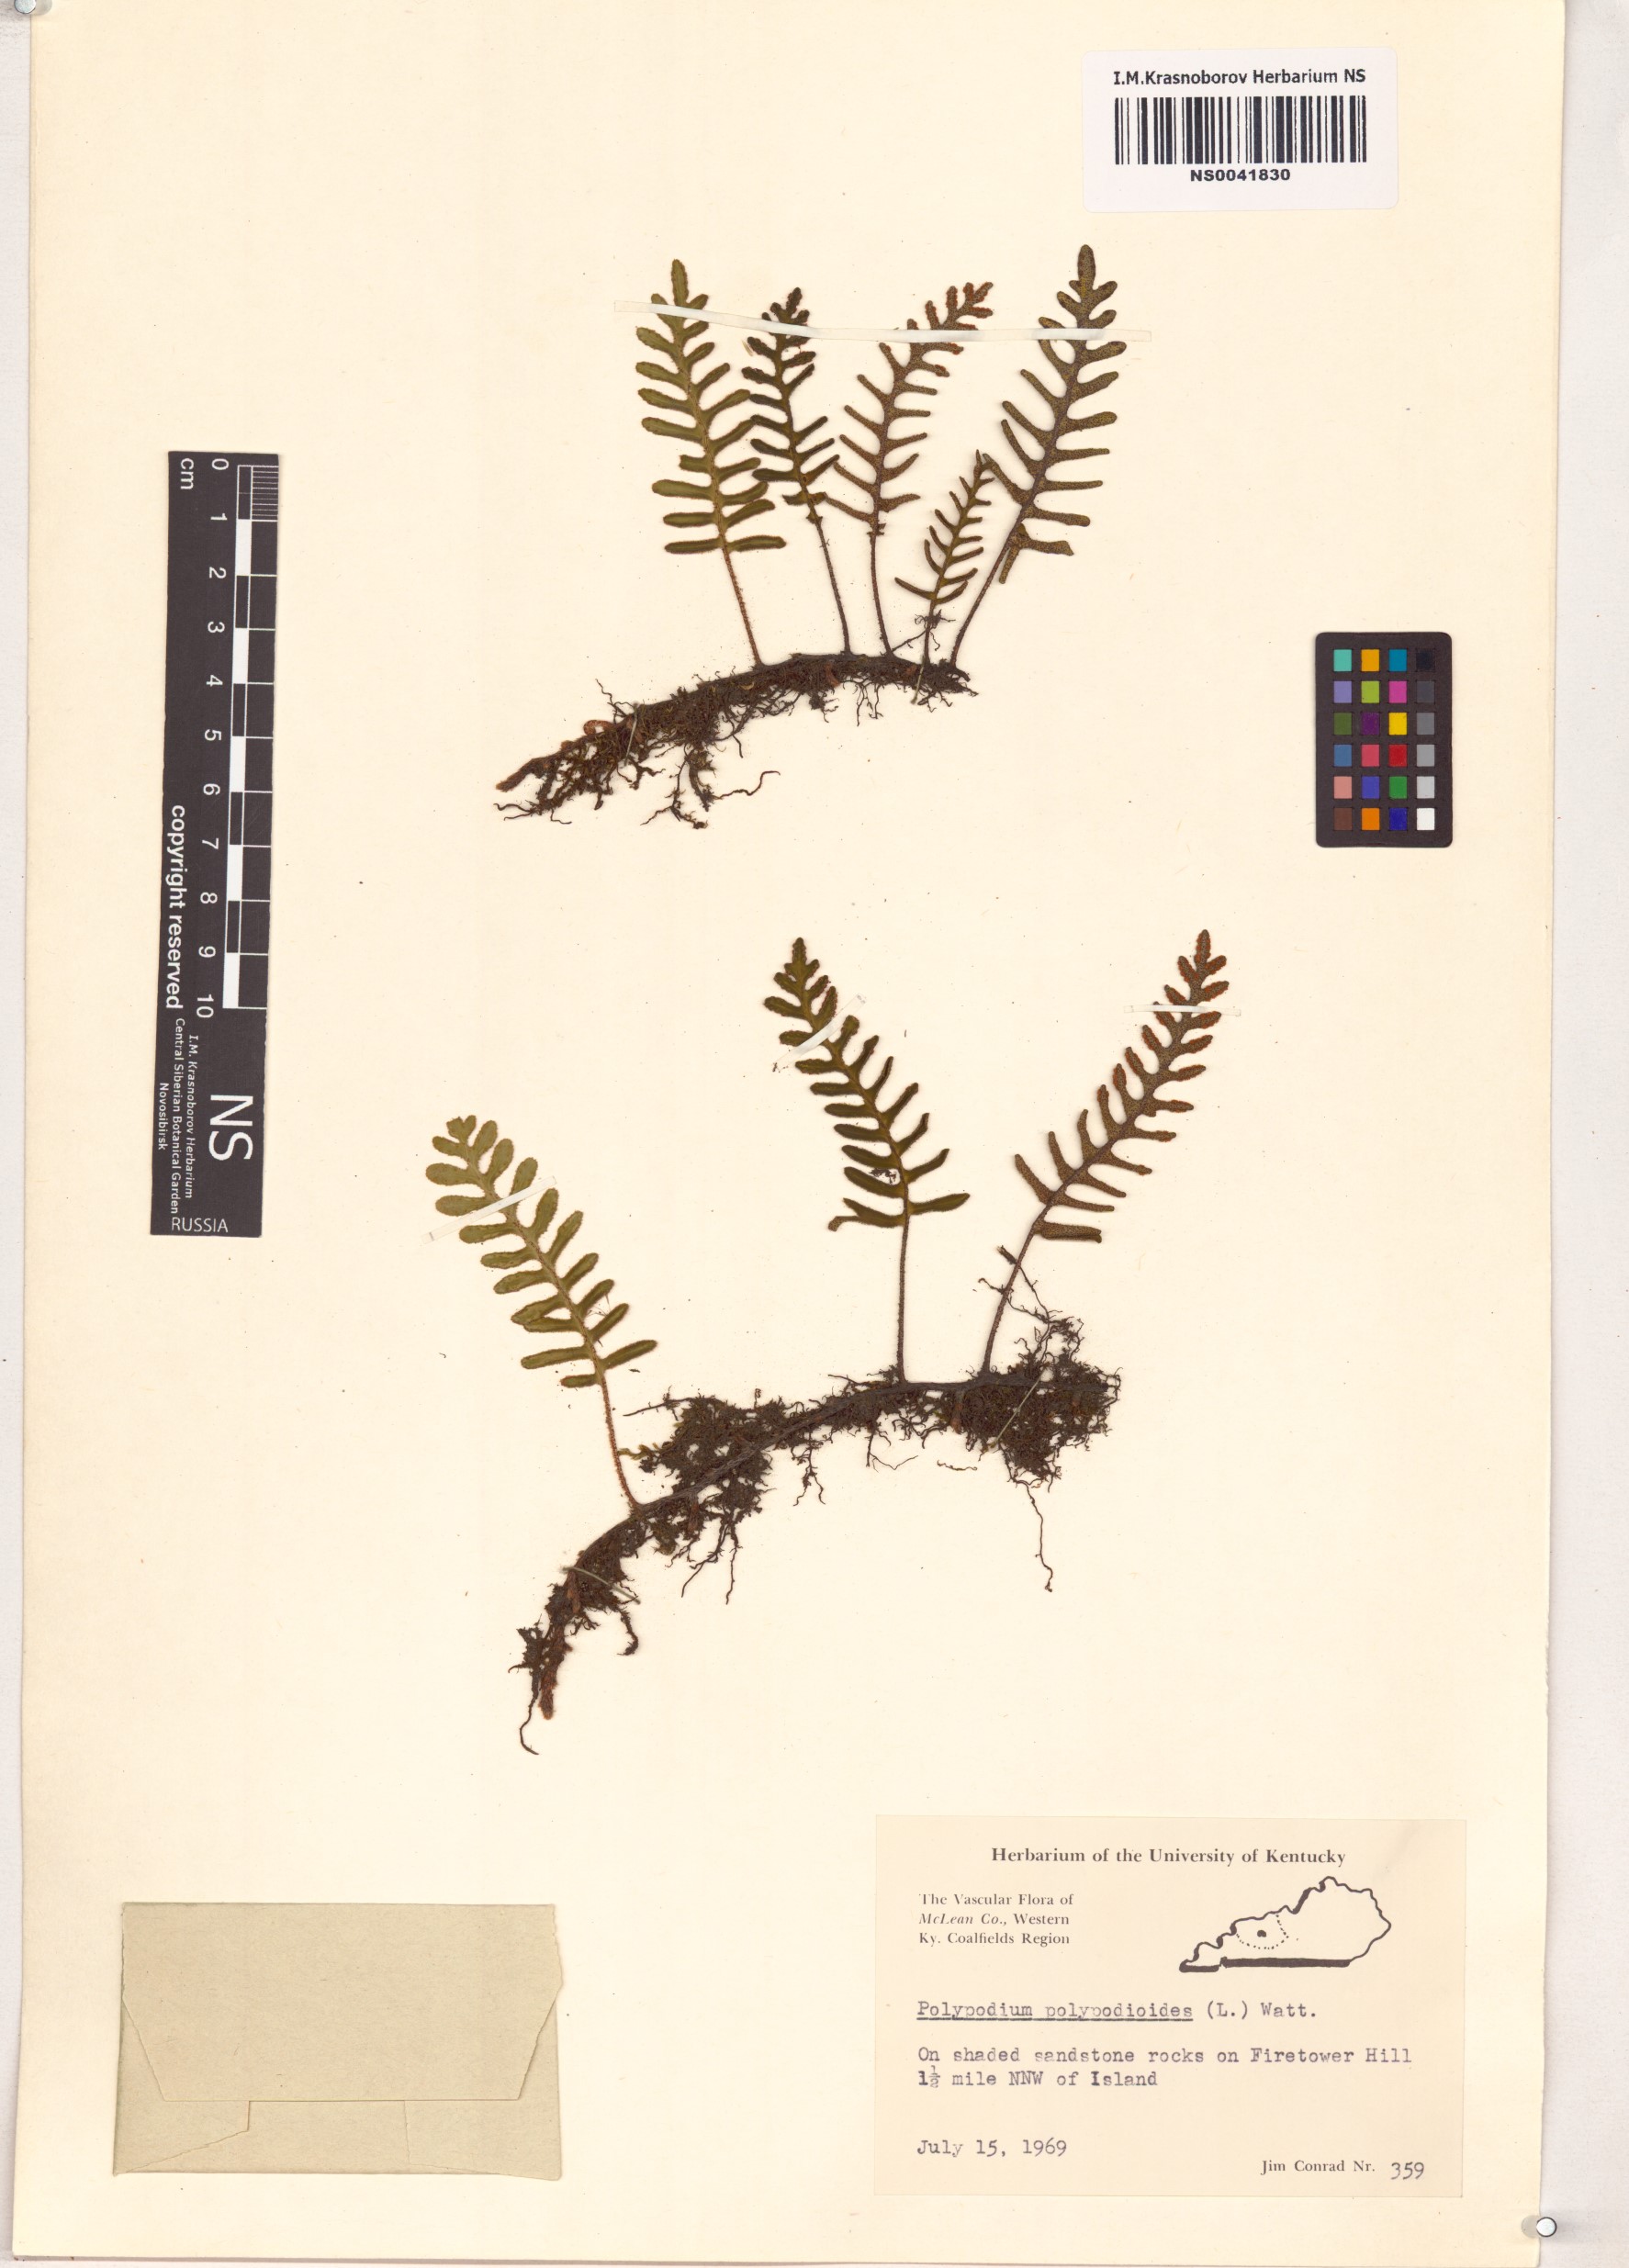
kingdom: Plantae
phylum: Tracheophyta
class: Polypodiopsida
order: Polypodiales
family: Polypodiaceae
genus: Pleopeltis
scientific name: Pleopeltis polypodioides
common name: Resurrection fern
